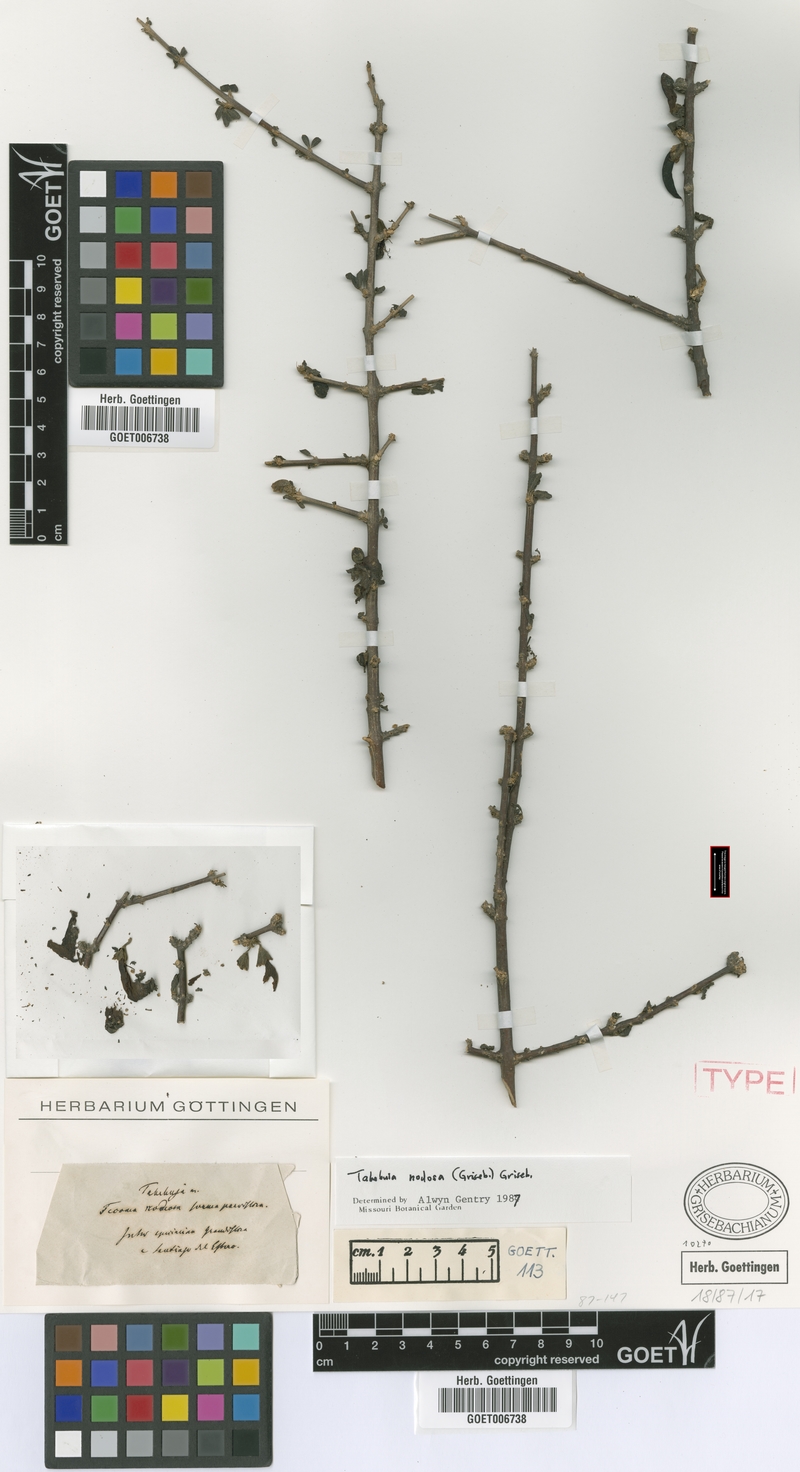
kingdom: Plantae
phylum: Tracheophyta
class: Magnoliopsida
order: Lamiales
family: Bignoniaceae
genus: Tabebuia
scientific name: Tabebuia nodosa
